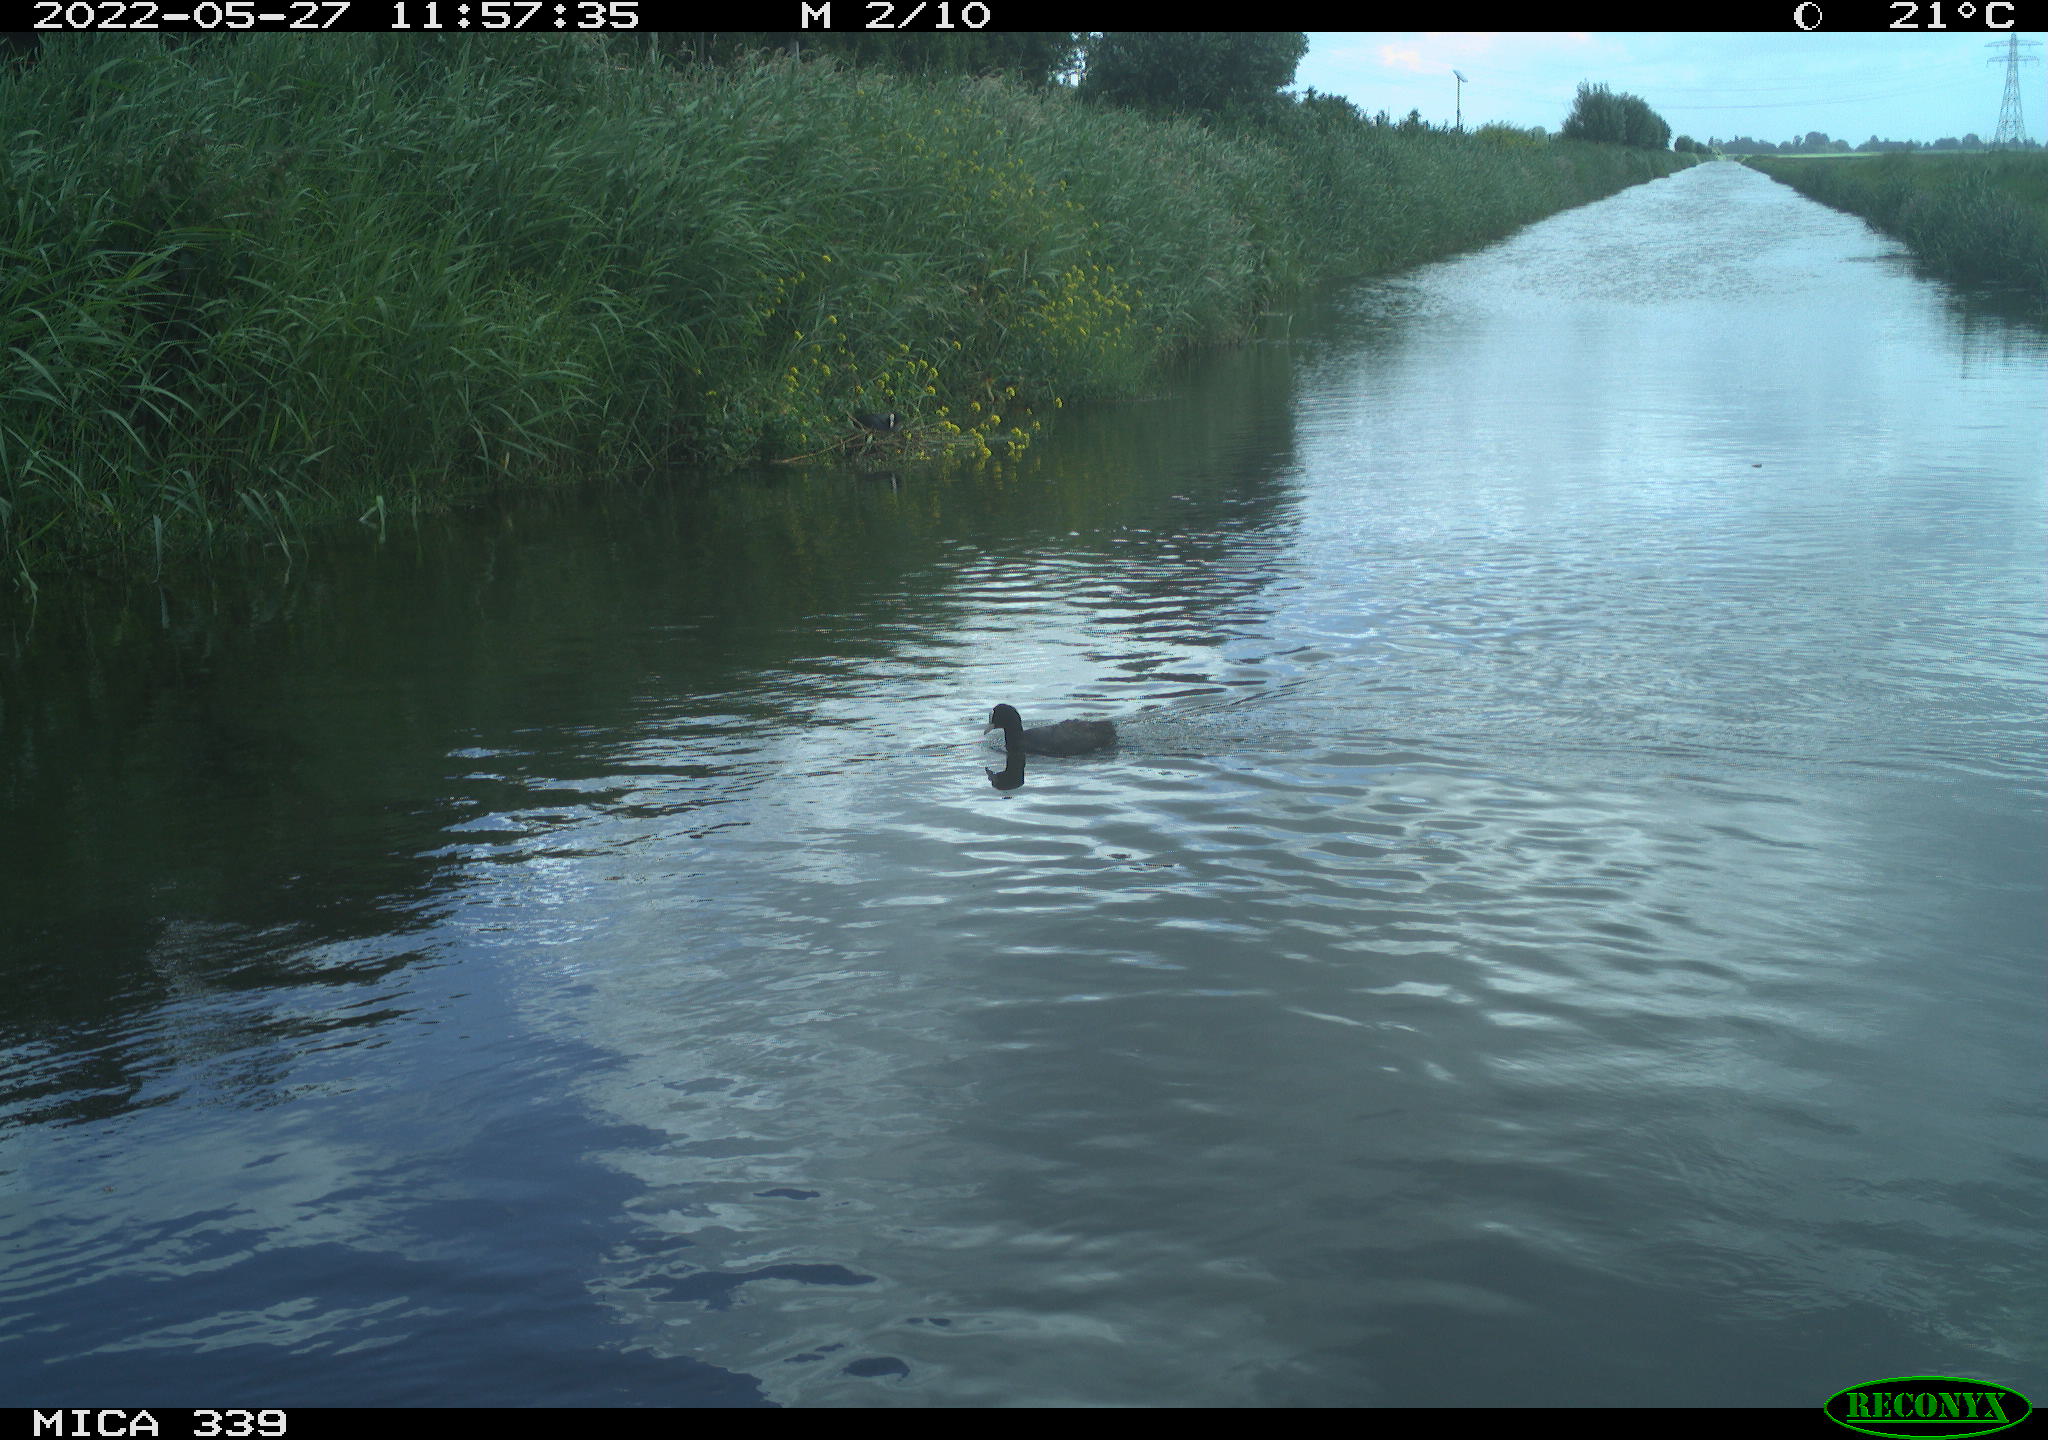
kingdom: Animalia
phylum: Chordata
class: Aves
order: Gruiformes
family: Rallidae
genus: Fulica
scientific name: Fulica atra
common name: Eurasian coot
